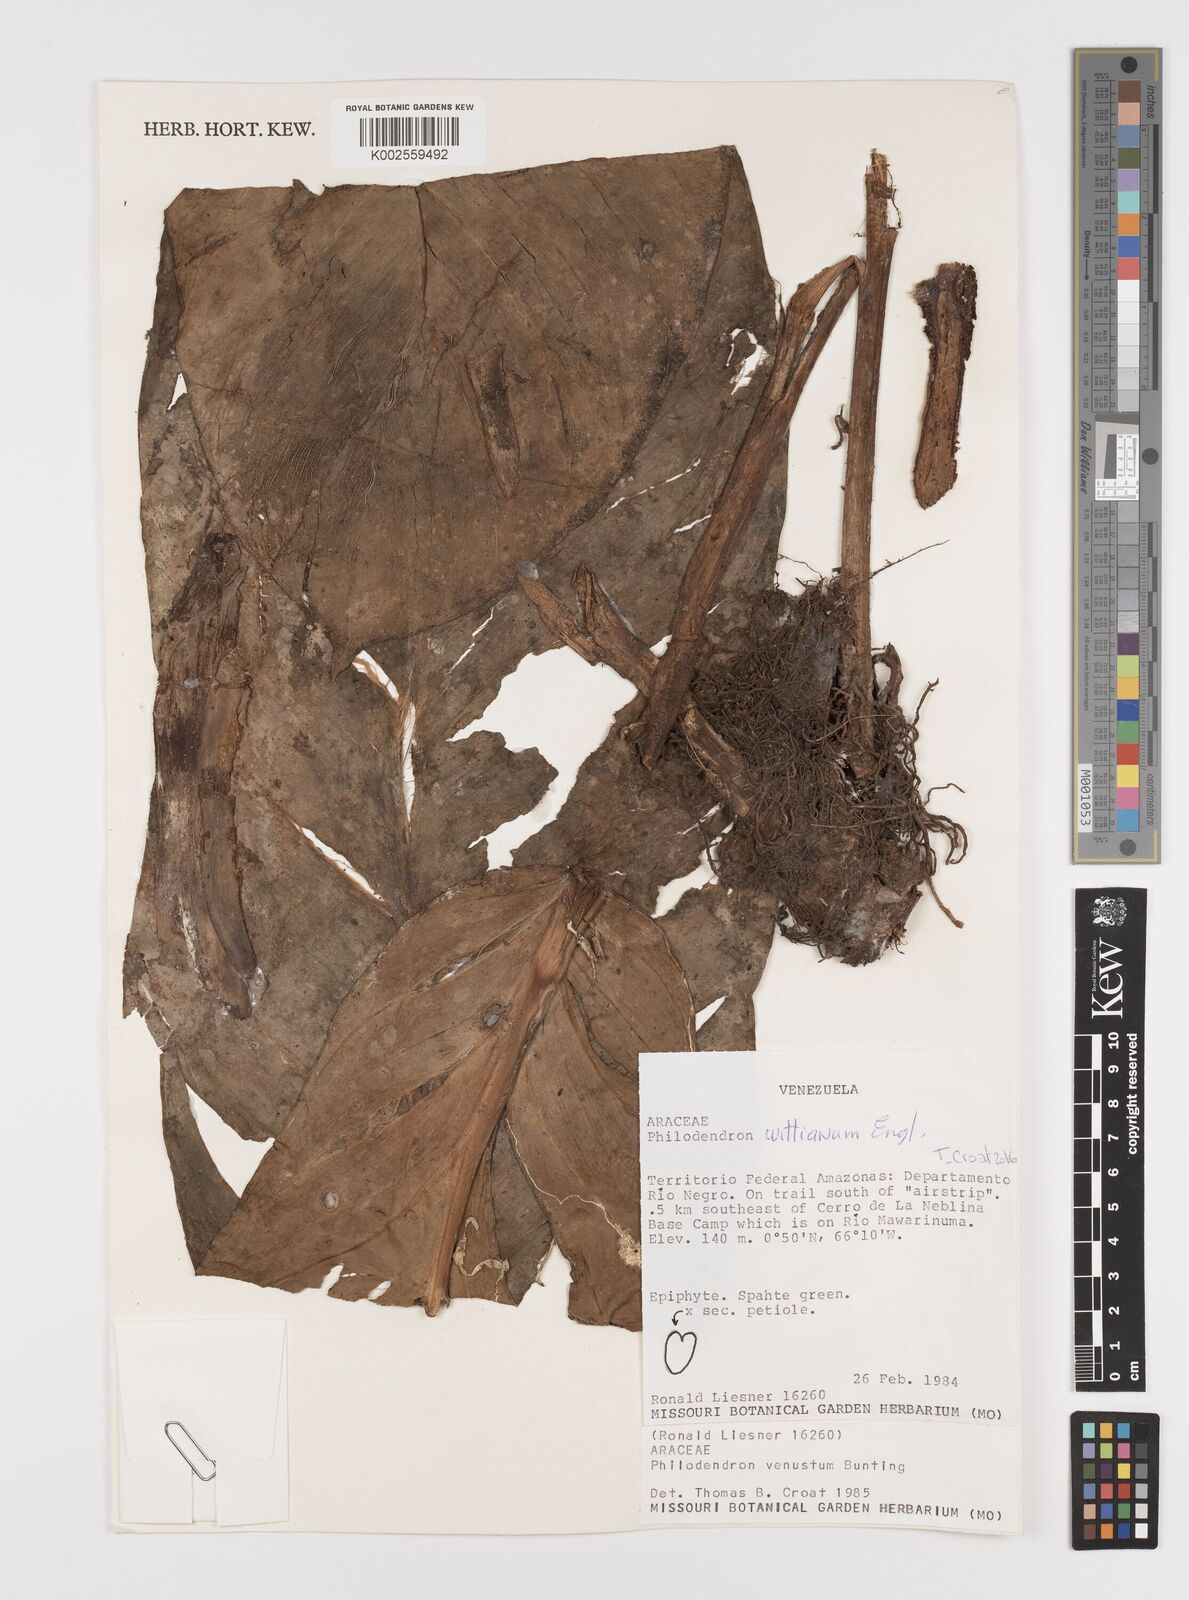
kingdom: Plantae
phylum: Tracheophyta
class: Liliopsida
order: Alismatales
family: Araceae
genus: Philodendron
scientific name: Philodendron wittianum
